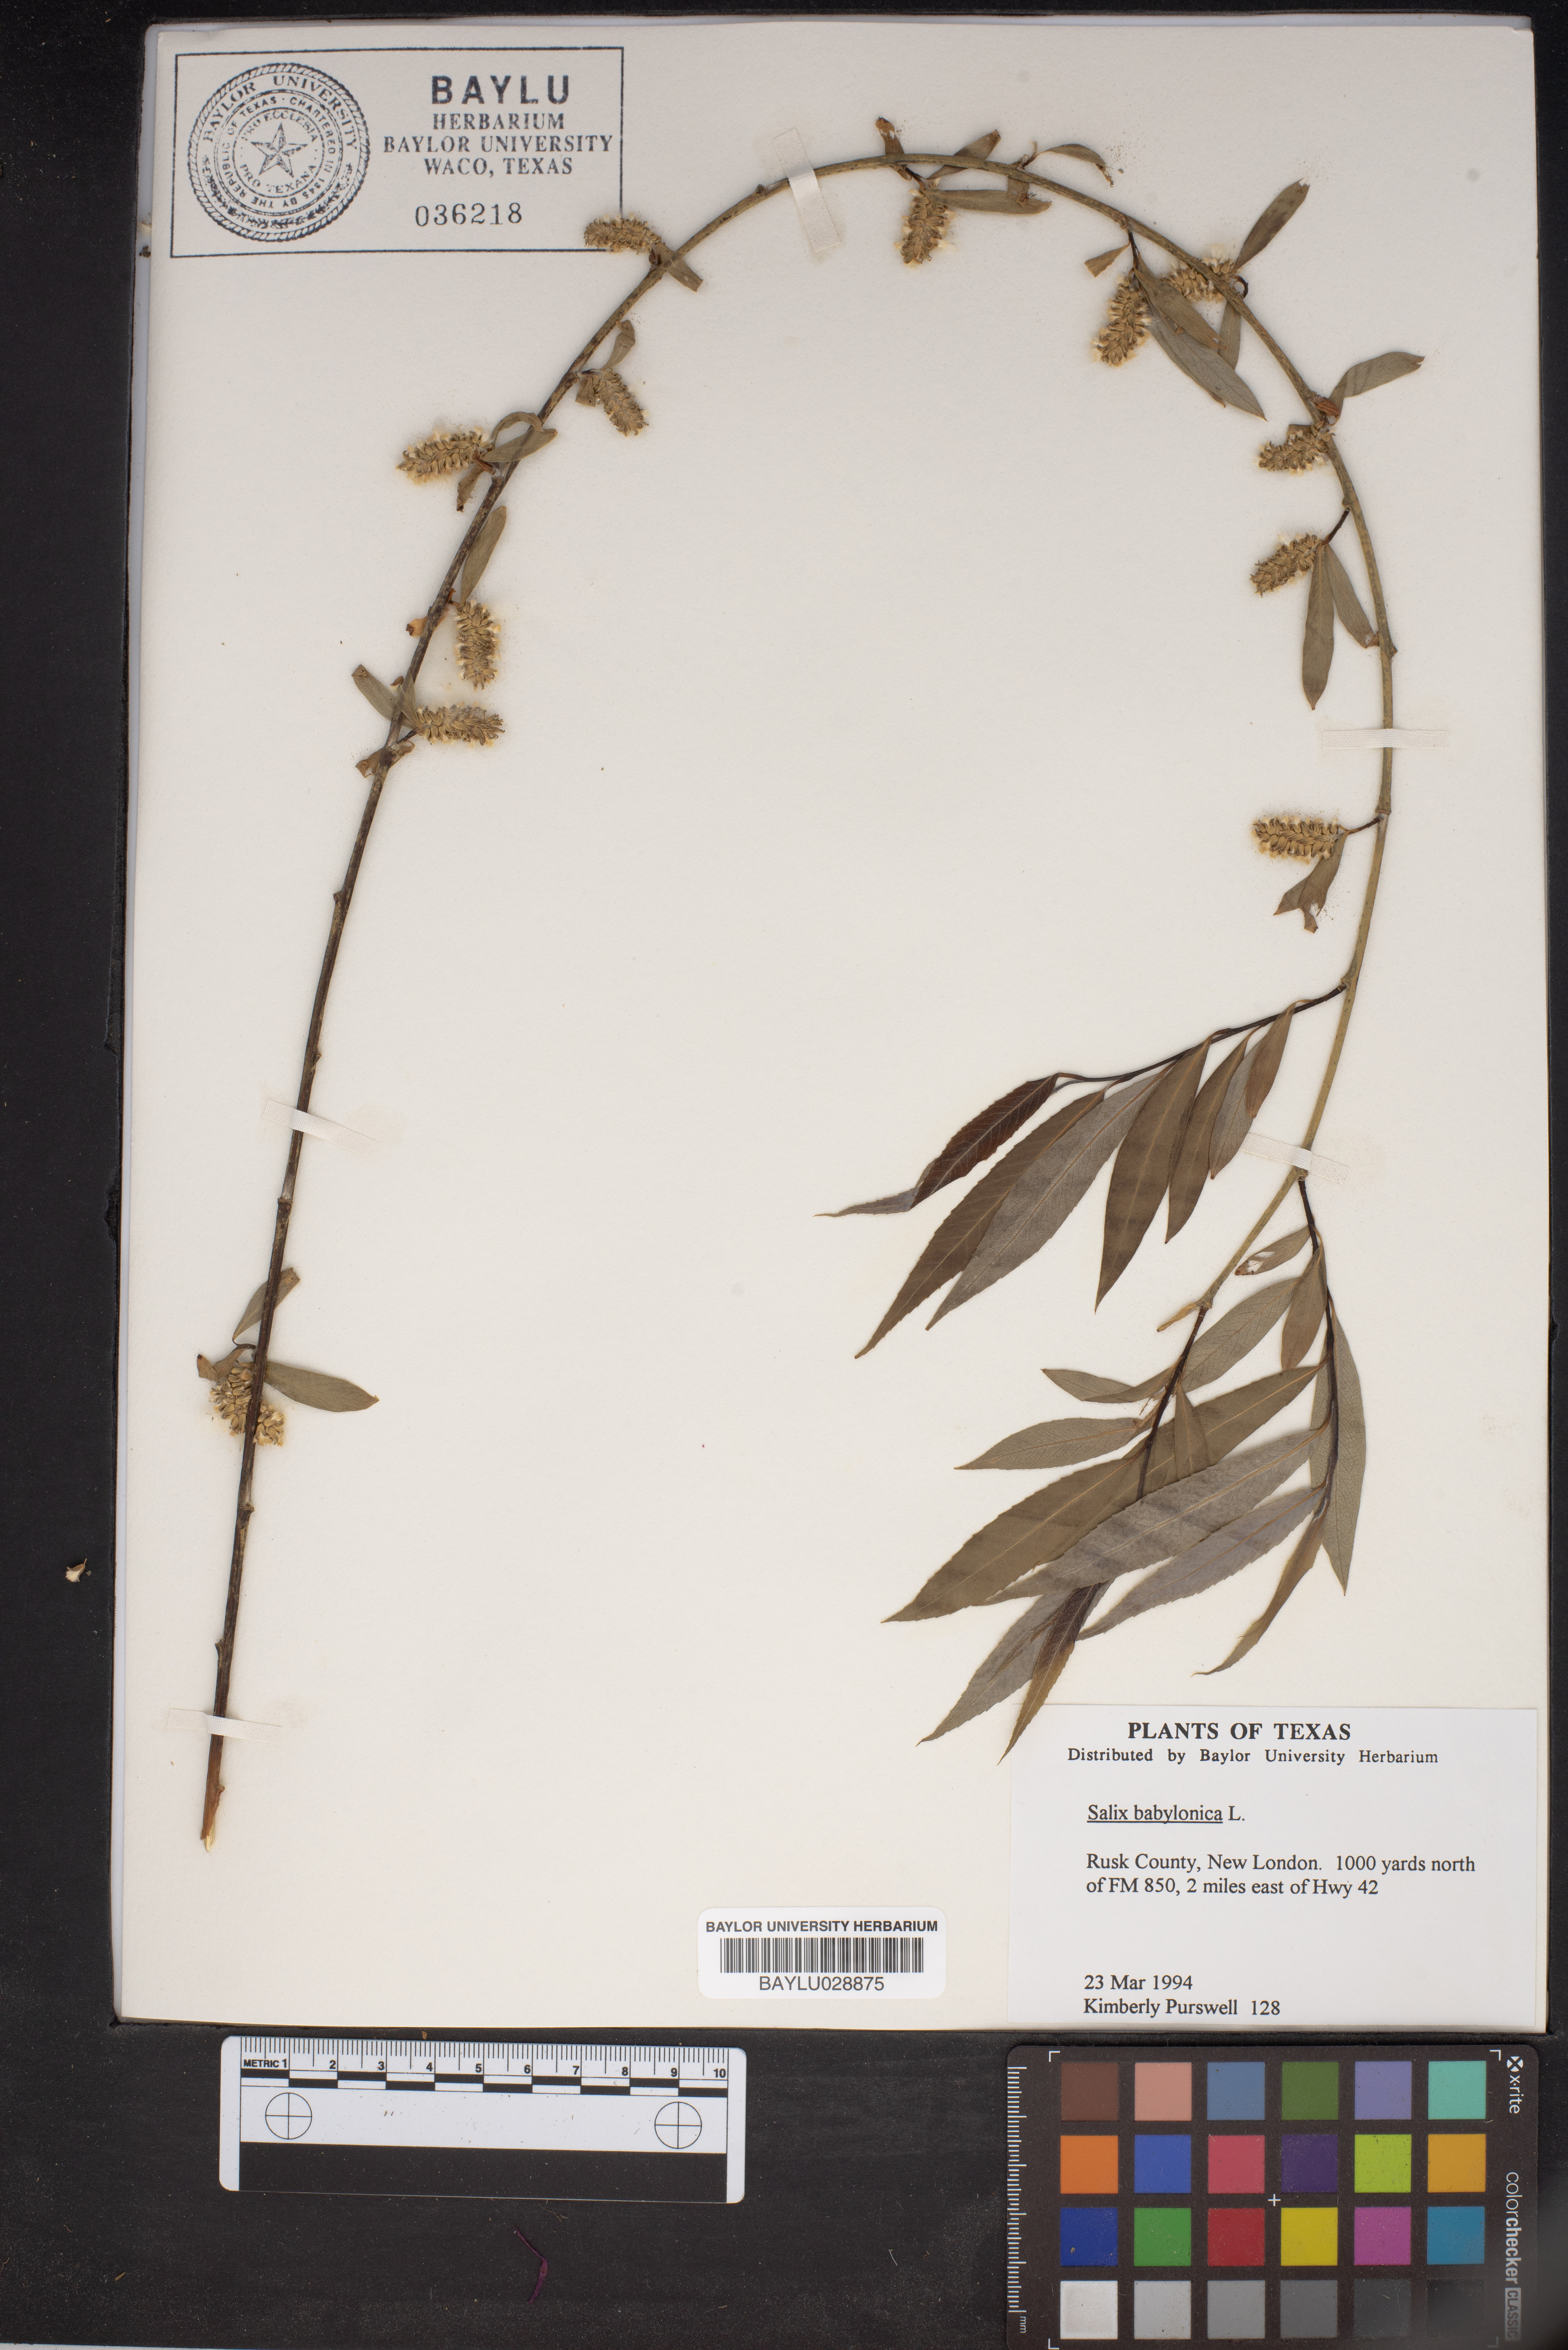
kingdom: Plantae
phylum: Tracheophyta
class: Magnoliopsida
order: Malpighiales
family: Salicaceae
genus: Salix
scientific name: Salix babylonica
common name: Weeping willow
